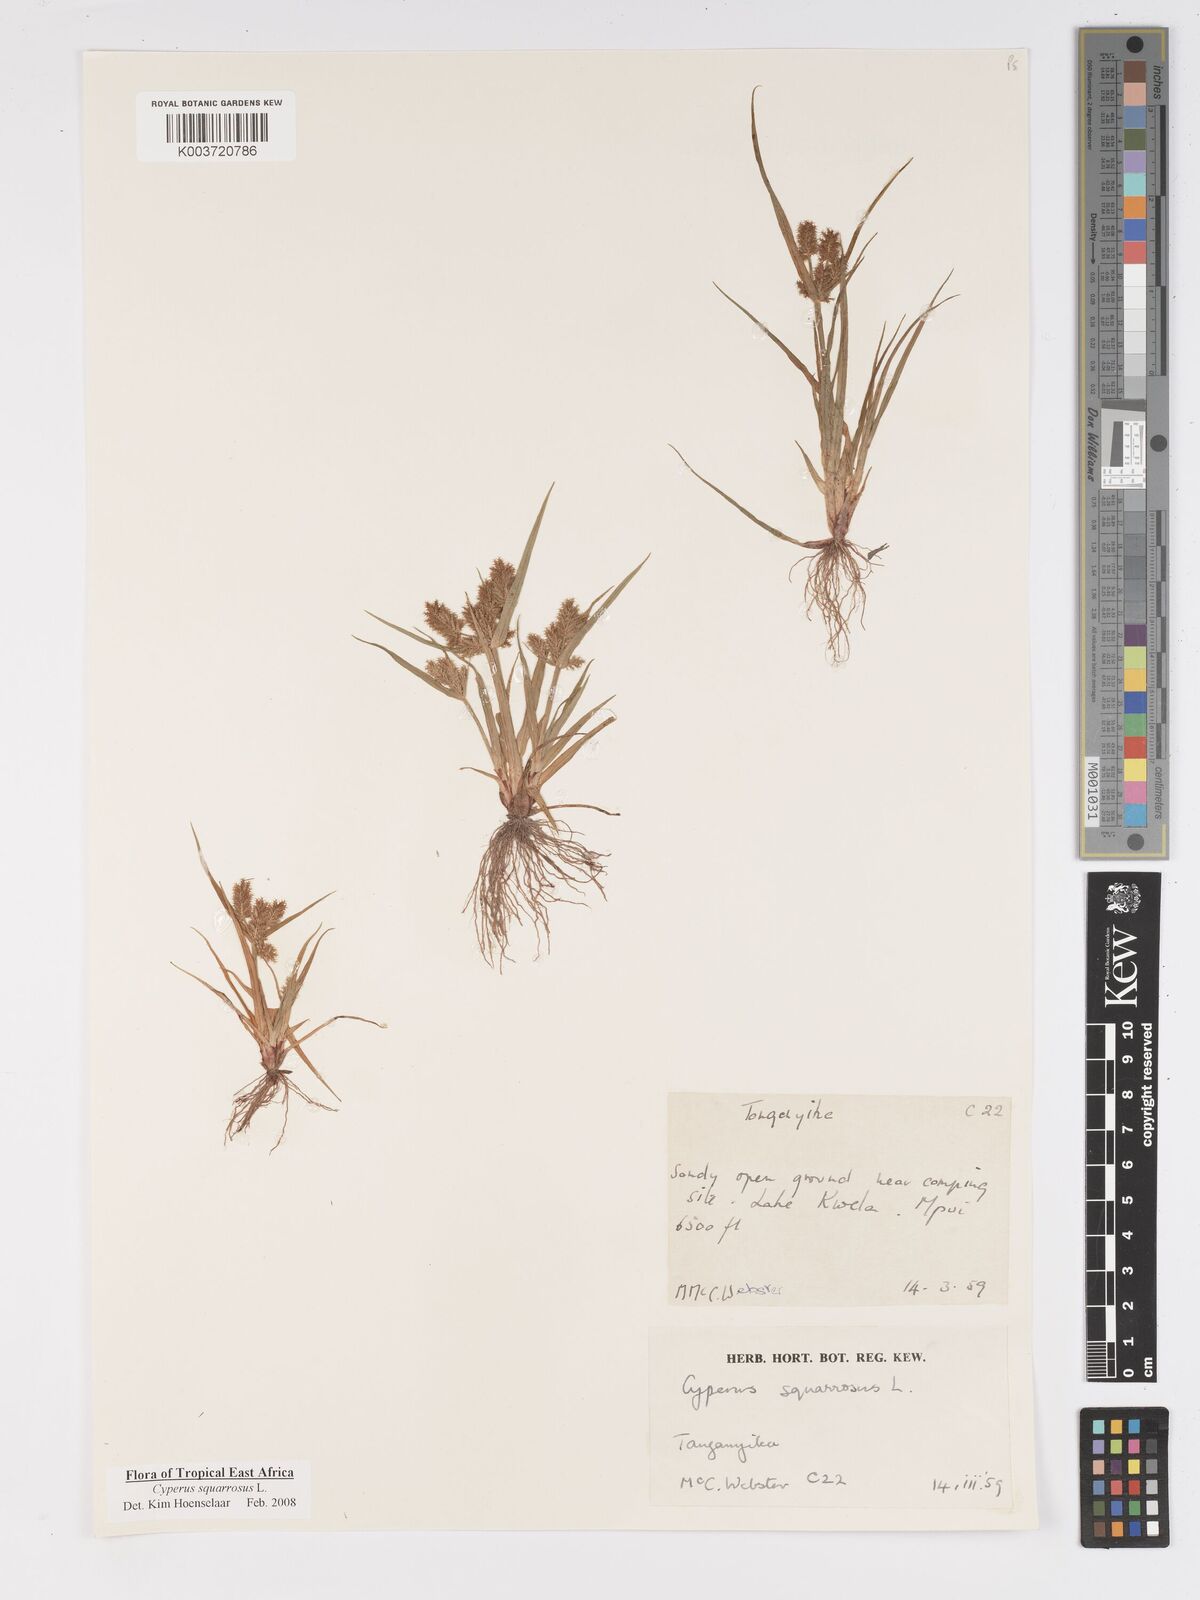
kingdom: Plantae
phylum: Tracheophyta
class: Liliopsida
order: Poales
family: Cyperaceae
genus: Cyperus
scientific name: Cyperus squarrosus
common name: Awned cyperus
